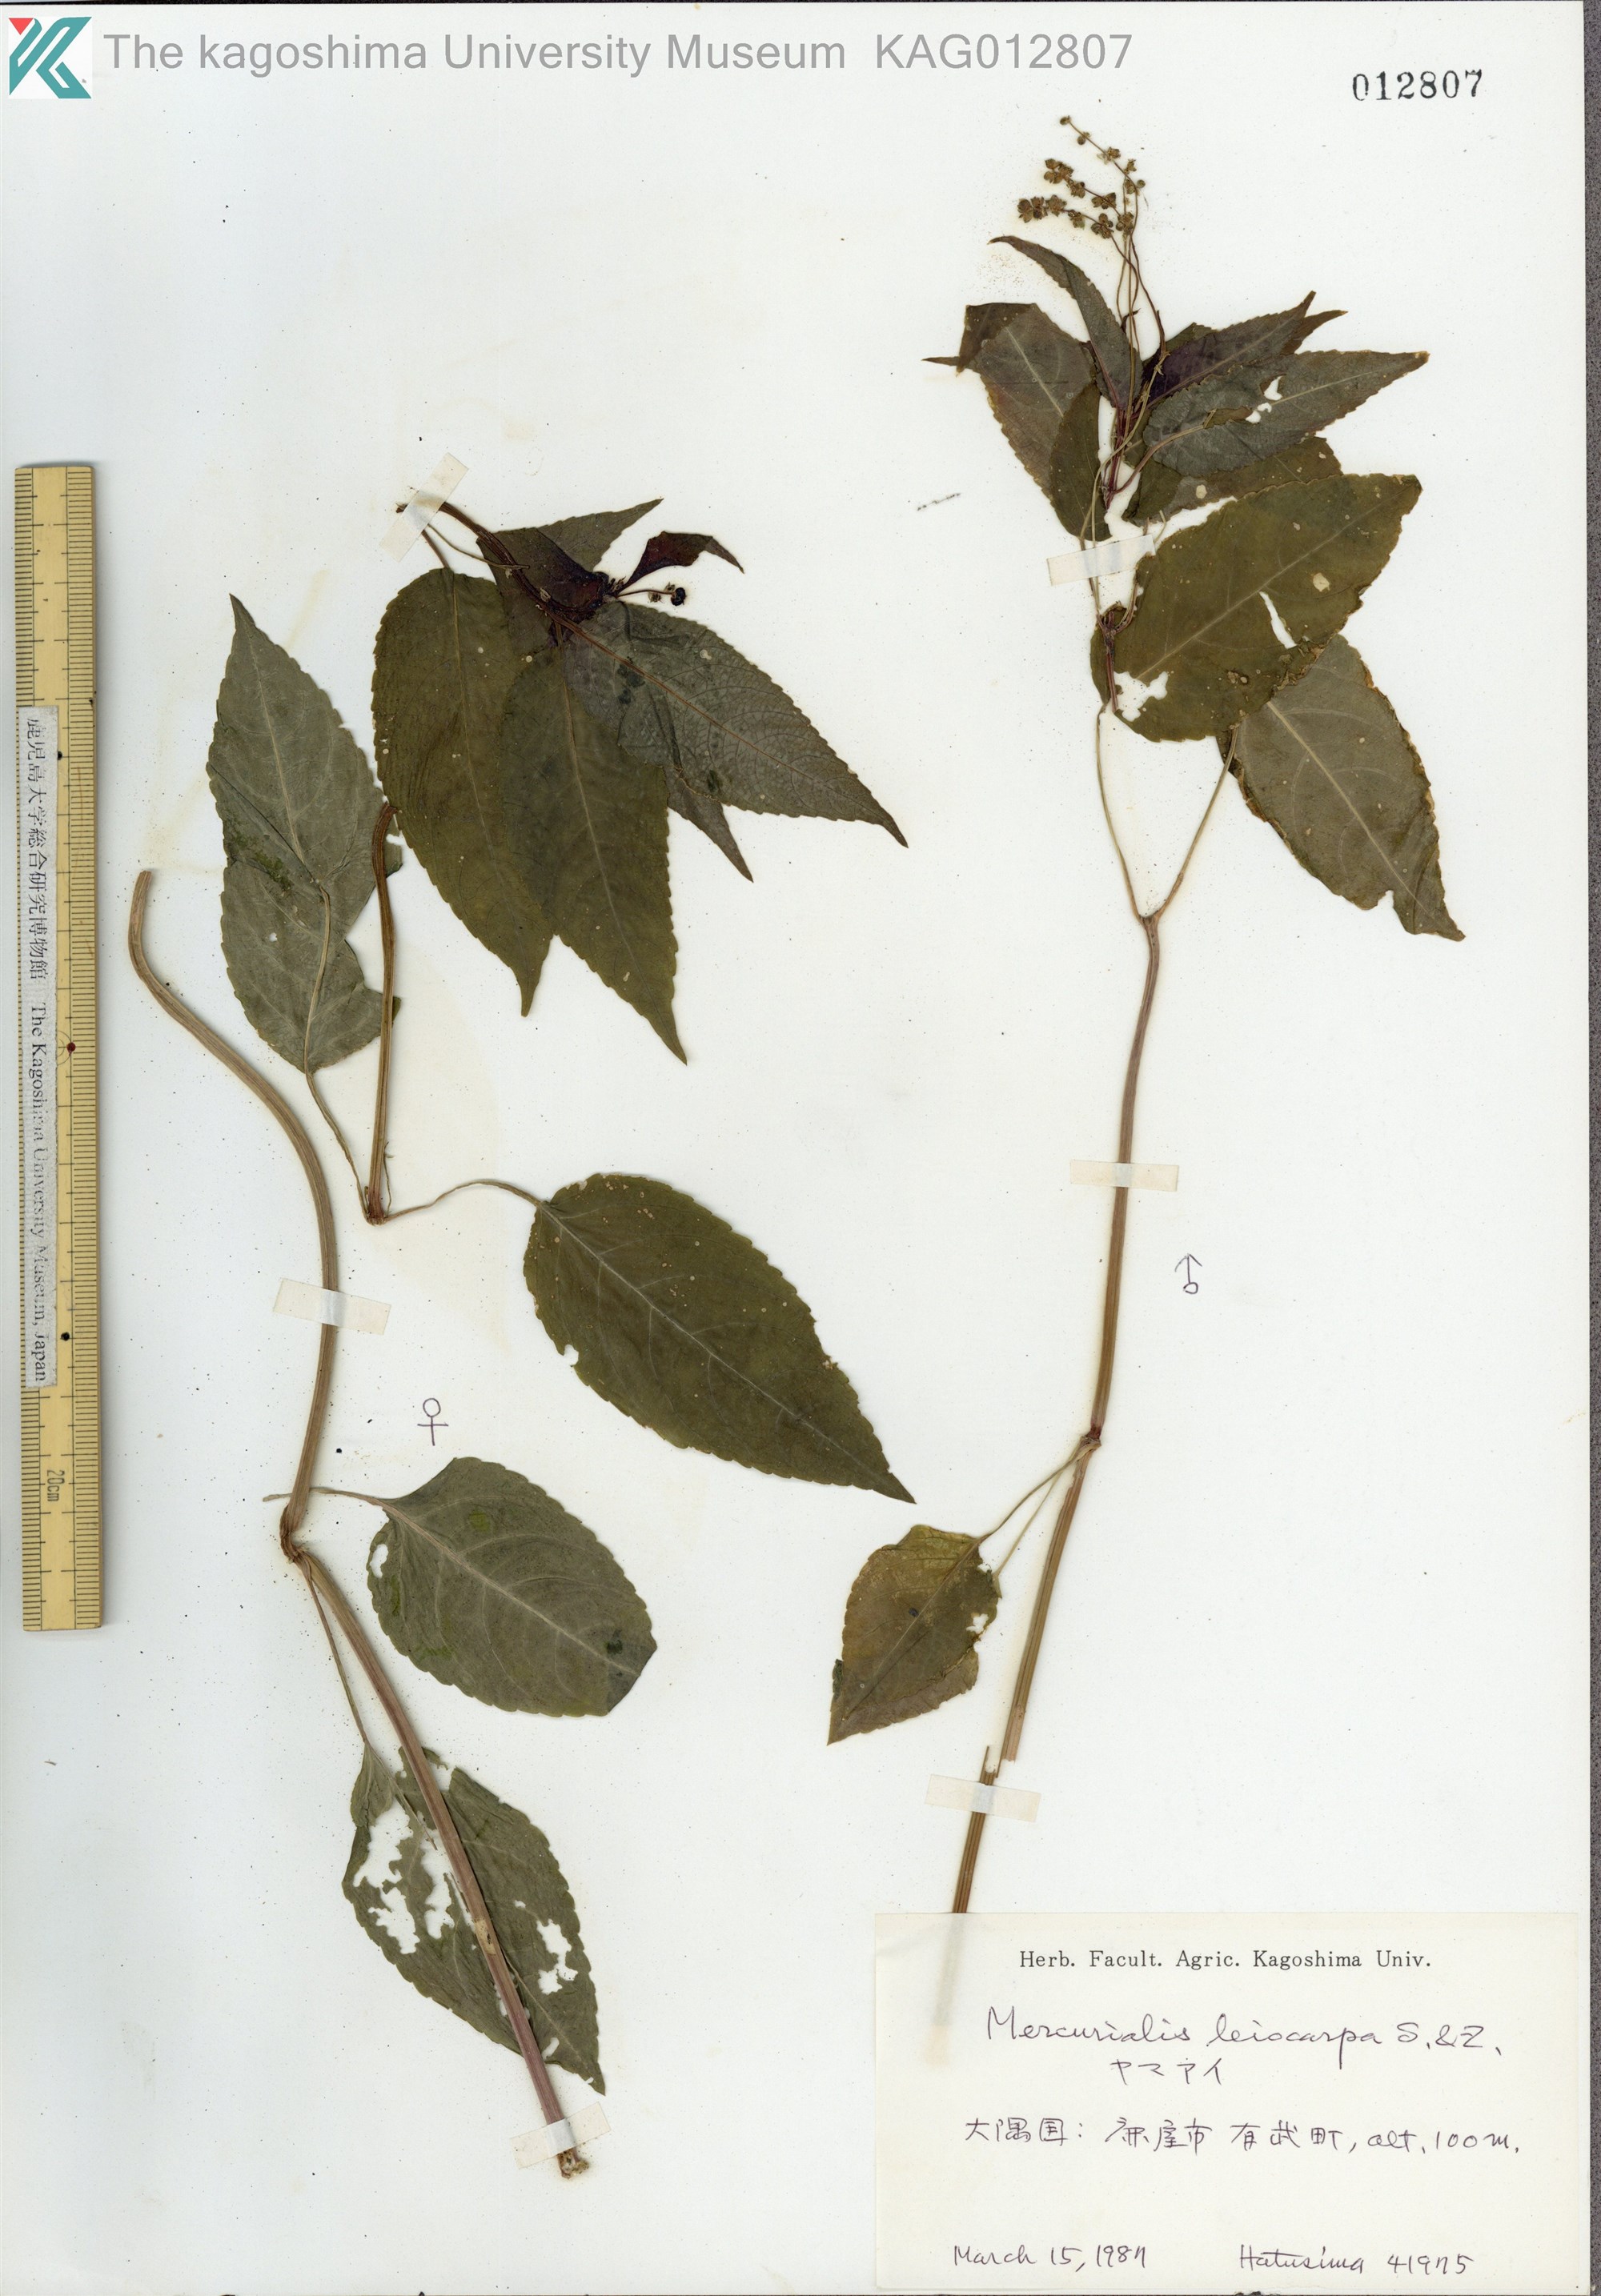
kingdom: Plantae
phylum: Tracheophyta
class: Magnoliopsida
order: Malpighiales
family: Euphorbiaceae
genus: Mercurialis
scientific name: Mercurialis leiocarpa
